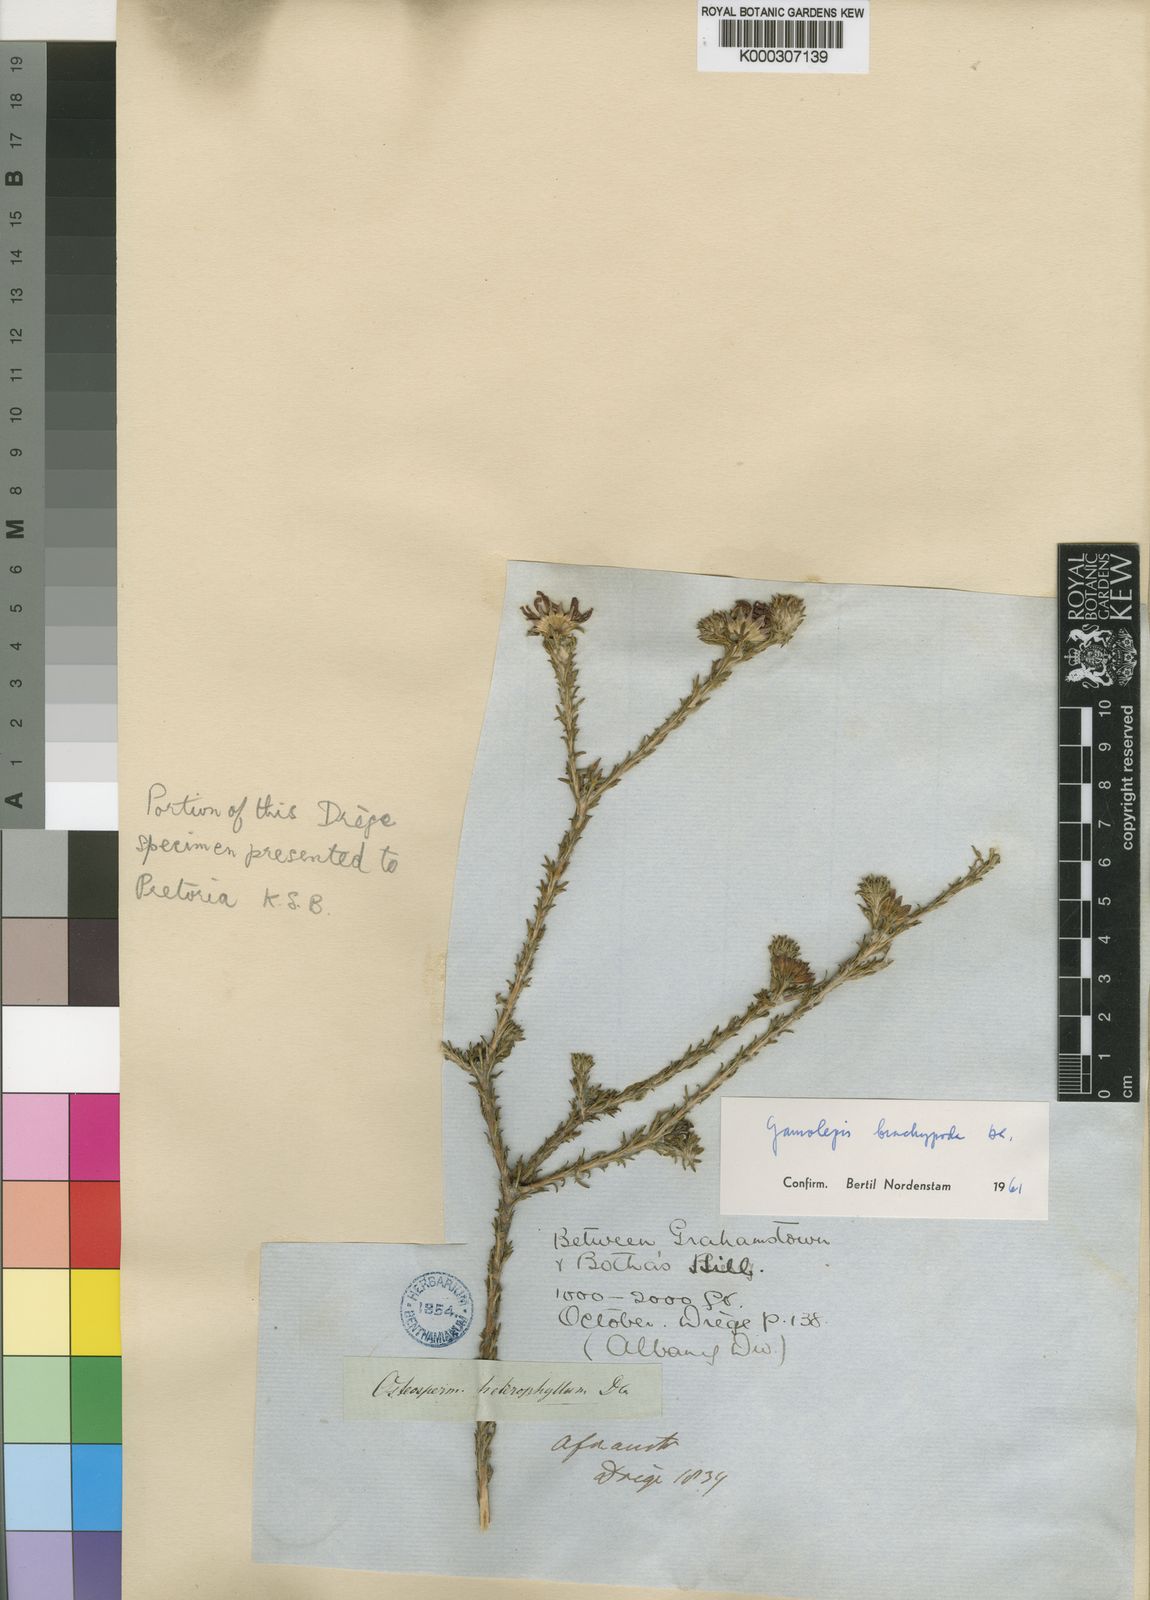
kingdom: Plantae
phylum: Tracheophyta
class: Magnoliopsida
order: Asterales
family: Asteraceae
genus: Euryops
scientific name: Euryops brachypodus
